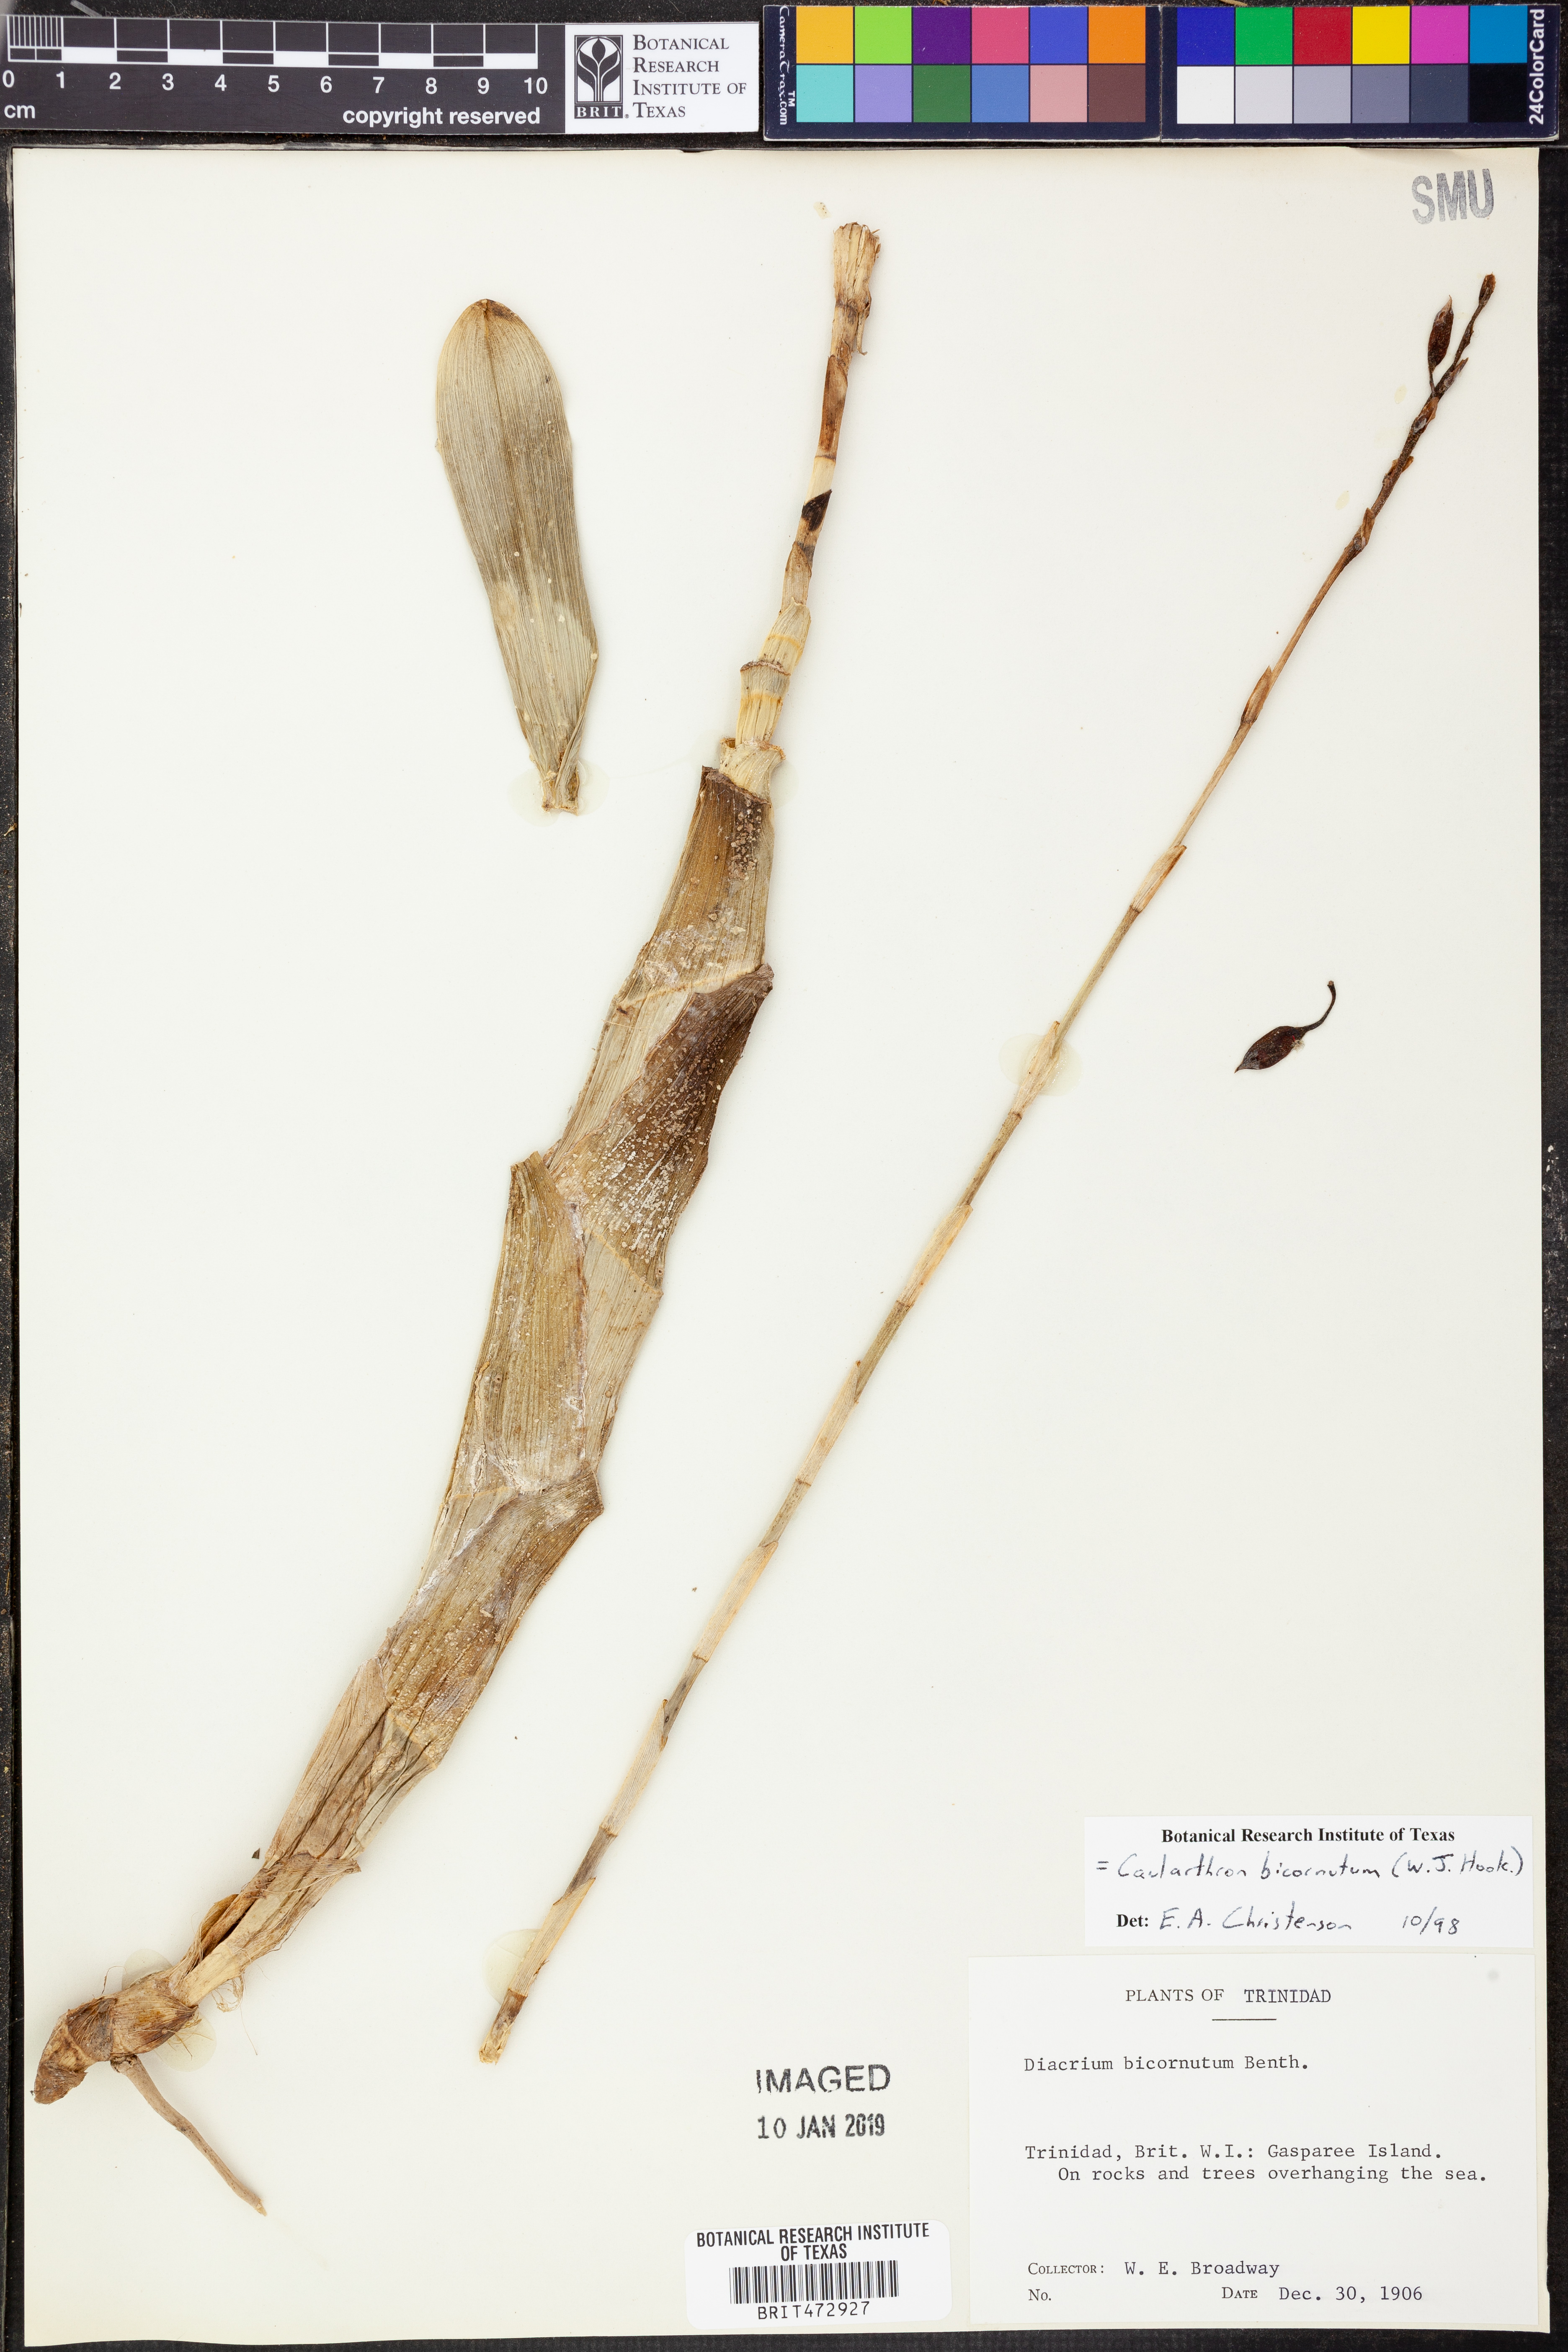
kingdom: Plantae
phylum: Tracheophyta
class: Liliopsida
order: Asparagales
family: Orchidaceae
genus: Caularthron
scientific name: Caularthron bicornutum
